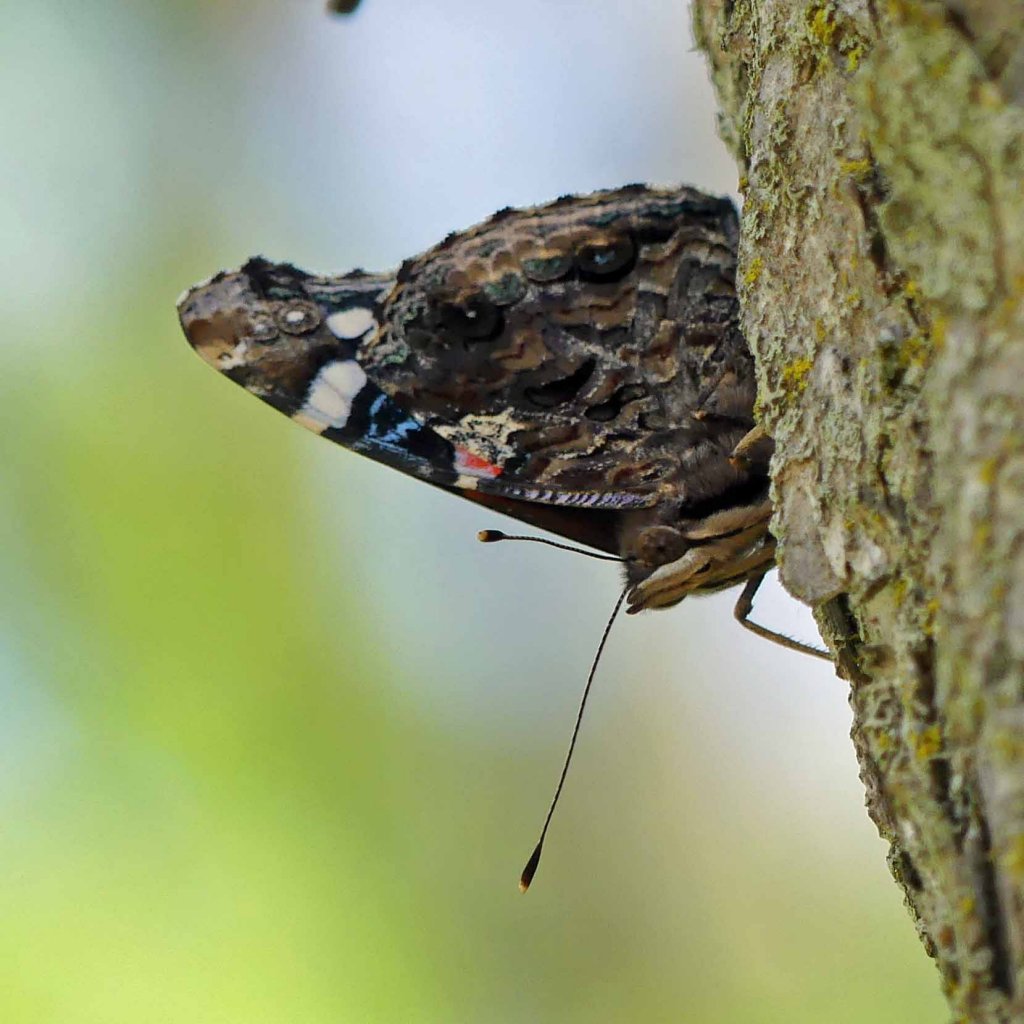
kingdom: Animalia
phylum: Arthropoda
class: Insecta
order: Lepidoptera
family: Nymphalidae
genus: Vanessa
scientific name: Vanessa atalanta
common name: Red Admiral
